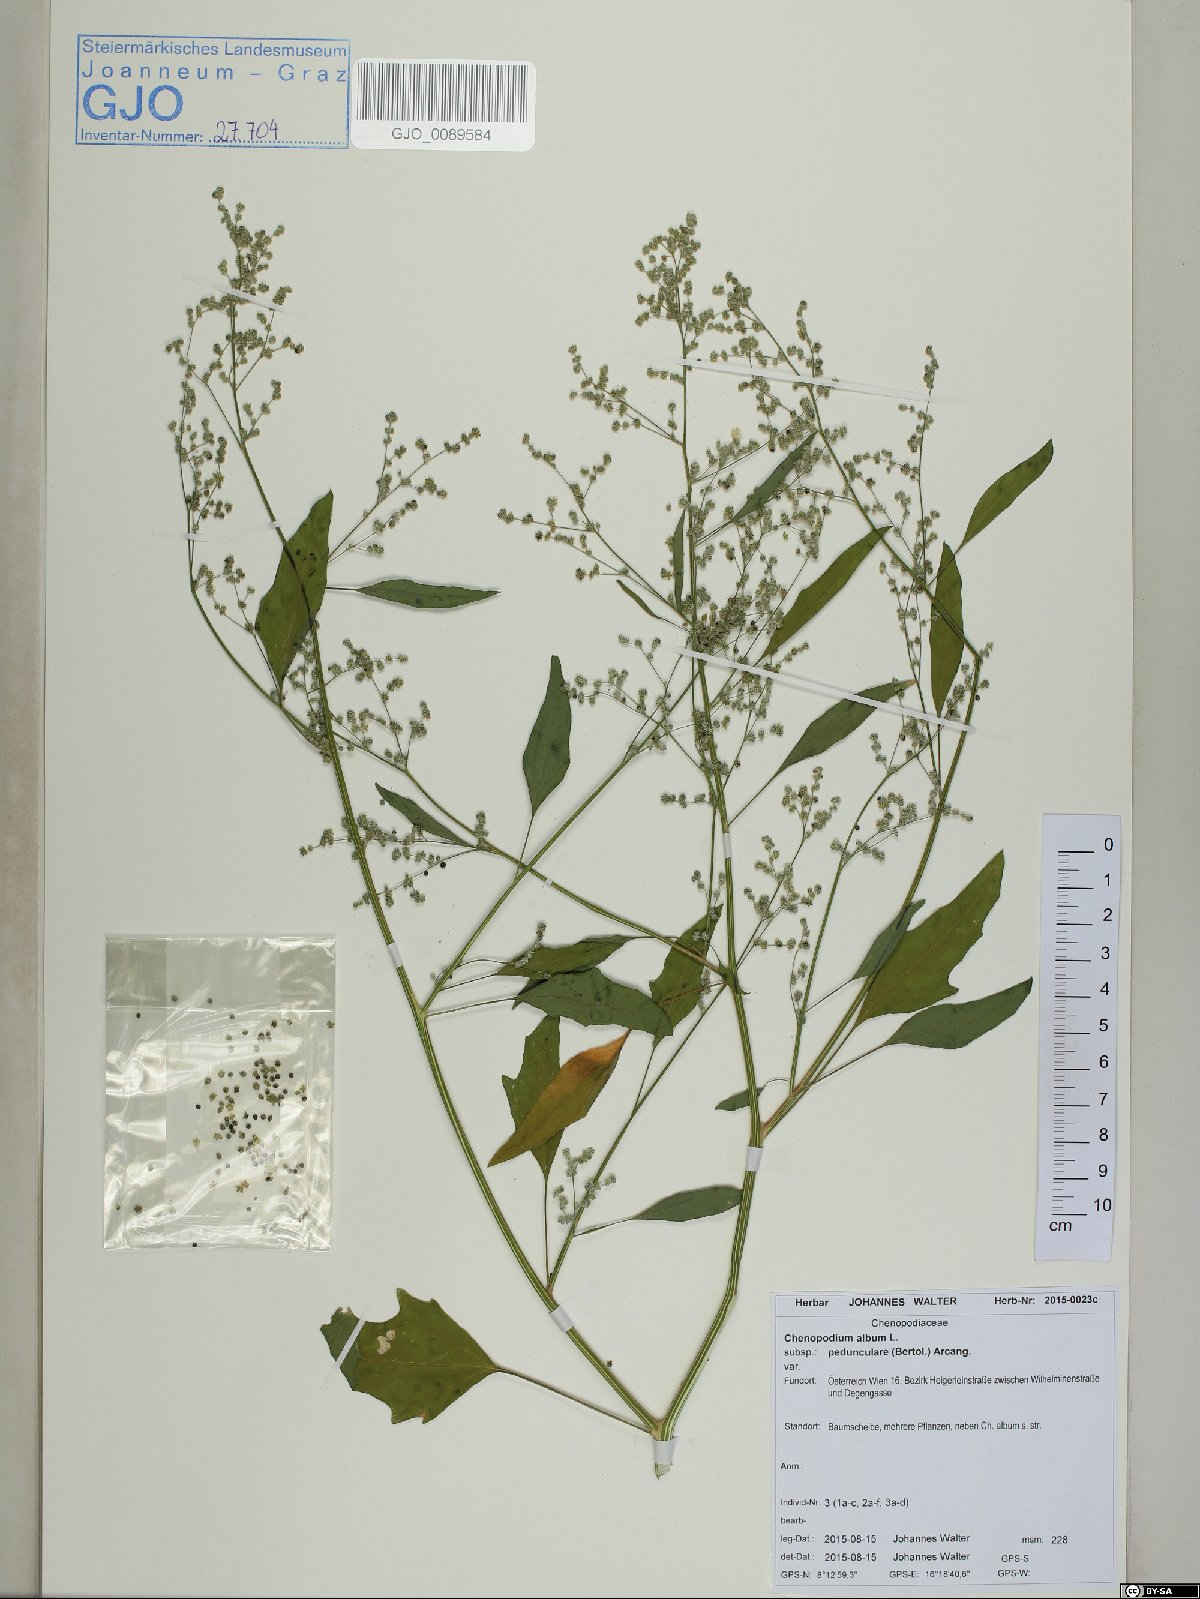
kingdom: Plantae
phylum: Tracheophyta
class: Magnoliopsida
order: Caryophyllales
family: Amaranthaceae
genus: Chenopodium
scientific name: Chenopodium album
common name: Fat-hen
